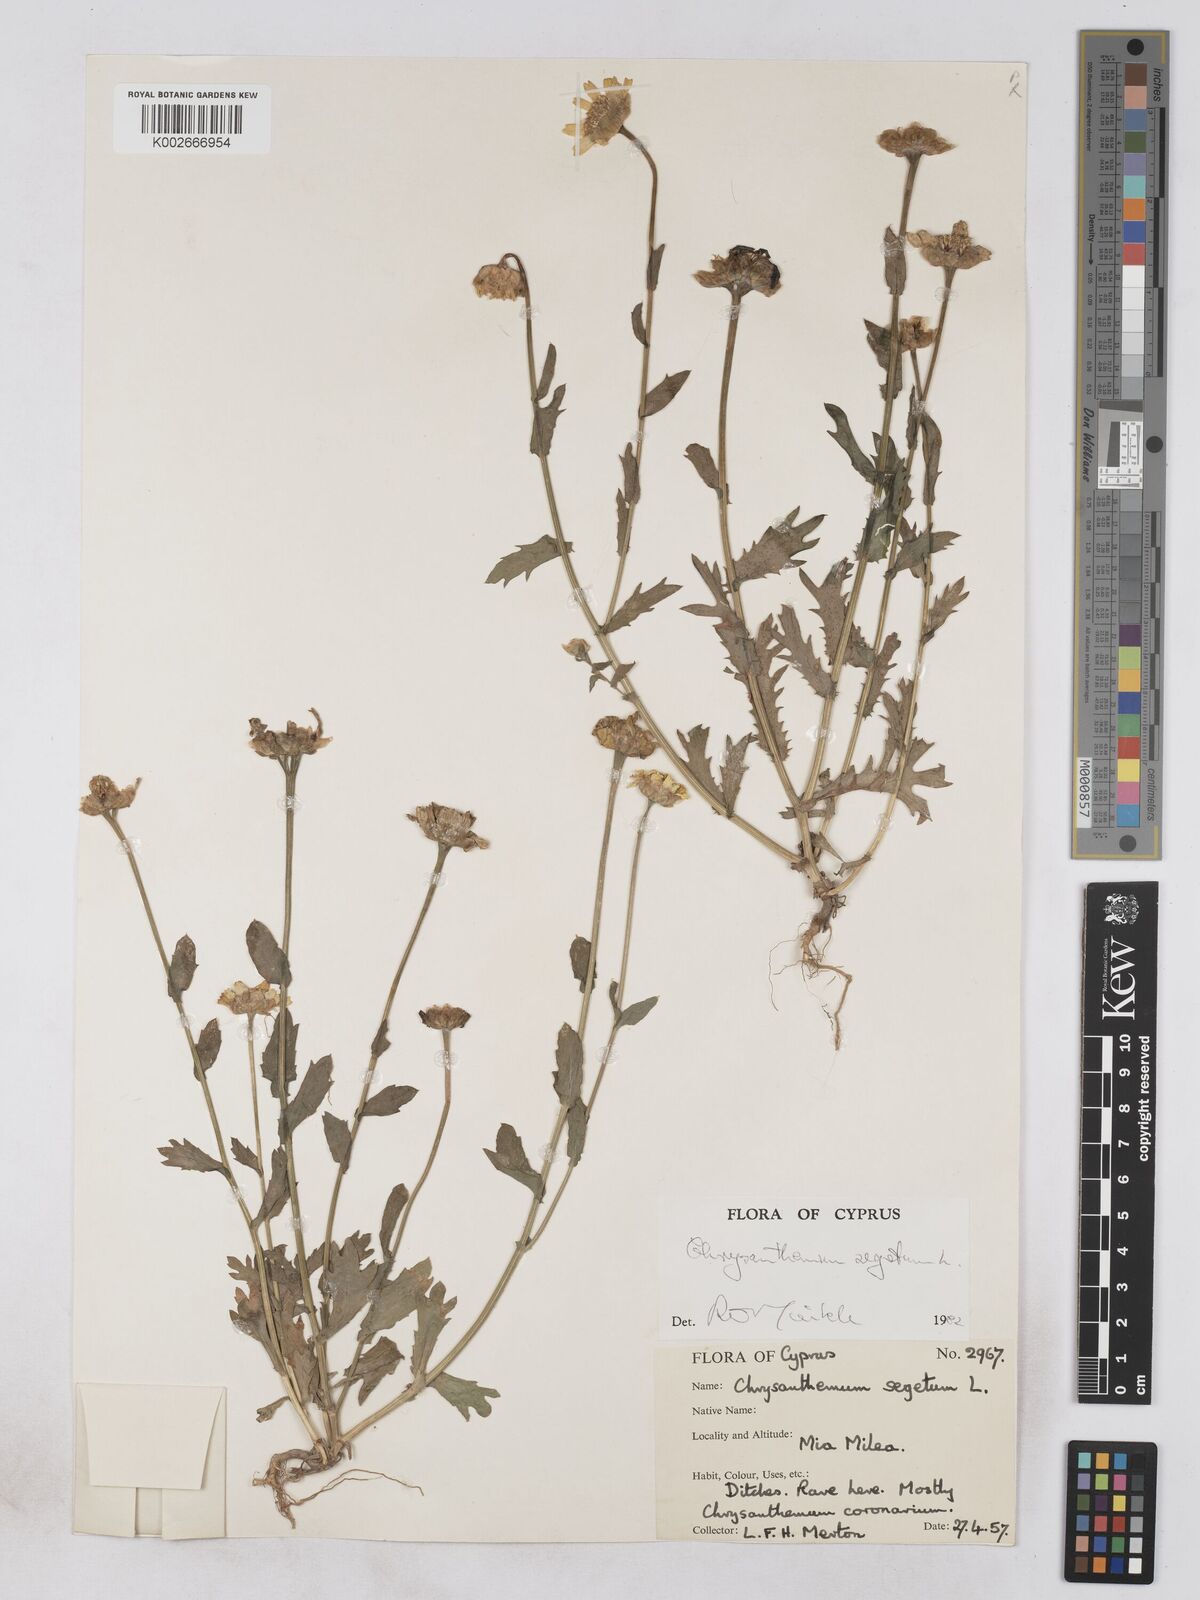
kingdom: Plantae
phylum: Tracheophyta
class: Magnoliopsida
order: Asterales
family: Asteraceae
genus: Glebionis
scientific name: Glebionis segetum
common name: Corndaisy
